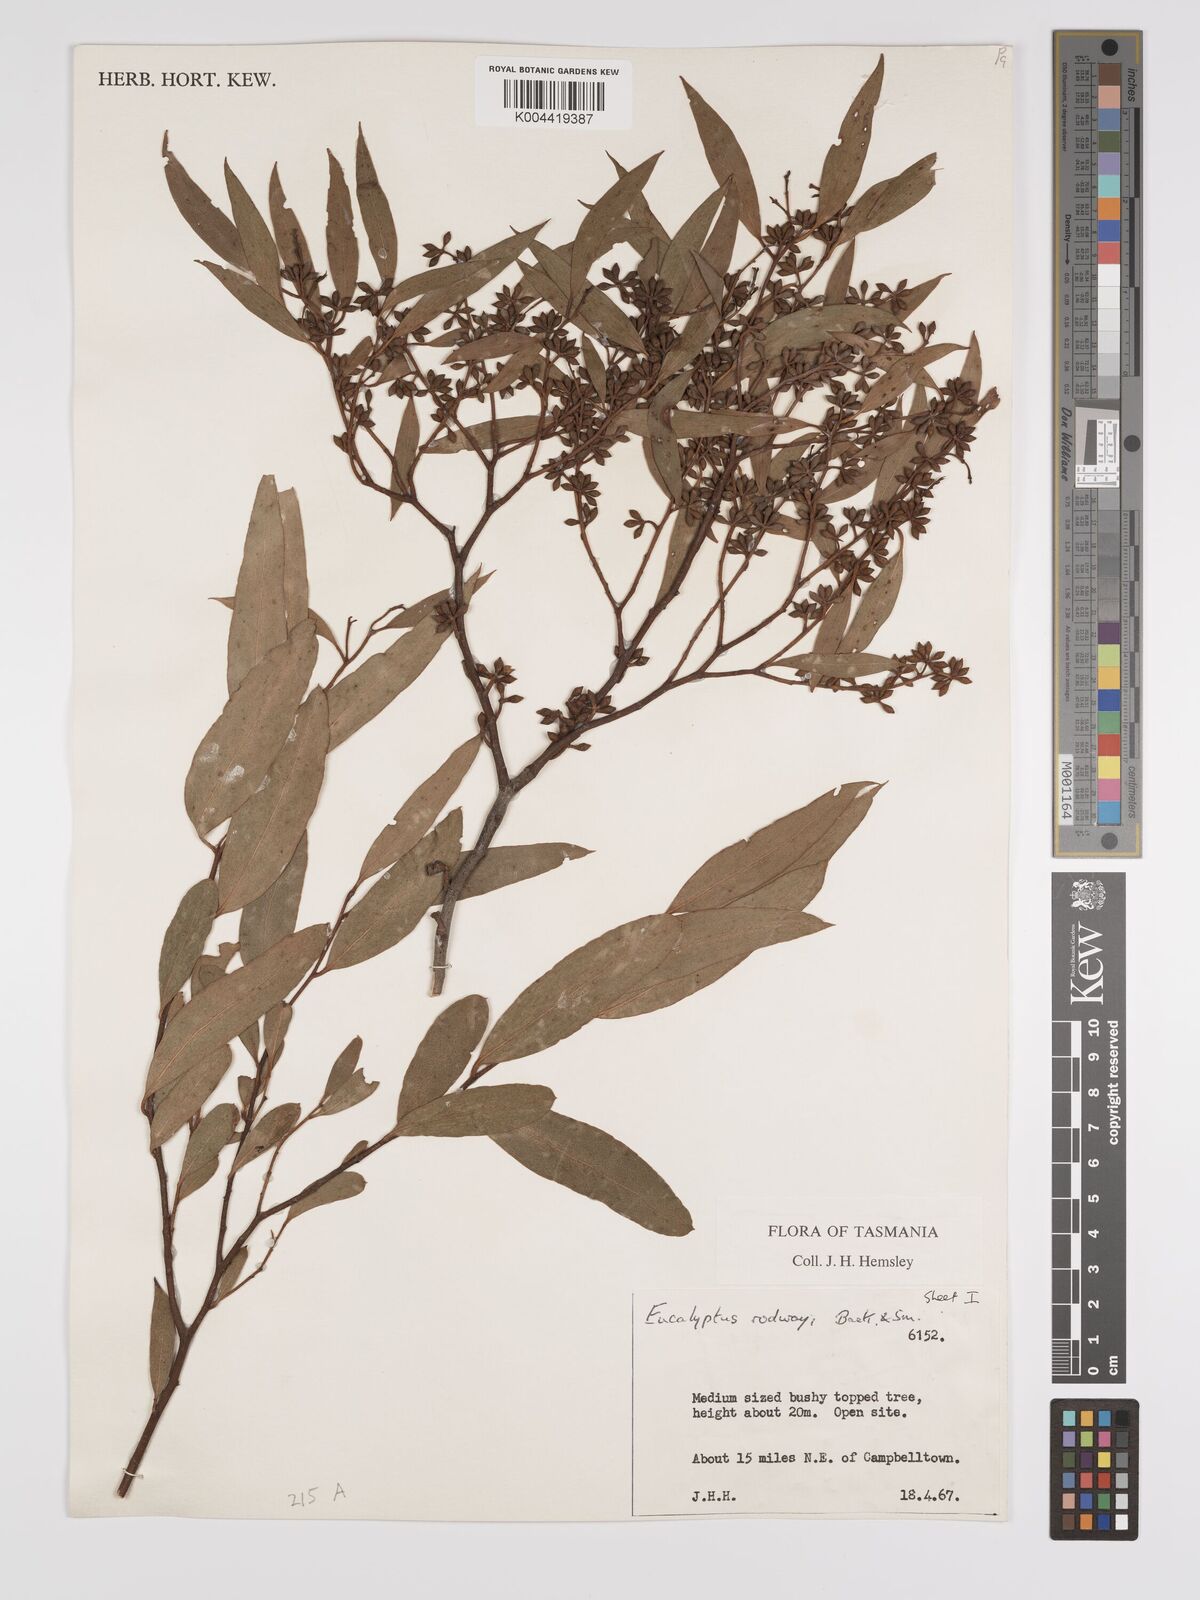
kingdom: Plantae
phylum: Tracheophyta
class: Magnoliopsida
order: Myrtales
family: Myrtaceae
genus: Eucalyptus
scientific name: Eucalyptus rodwayi
